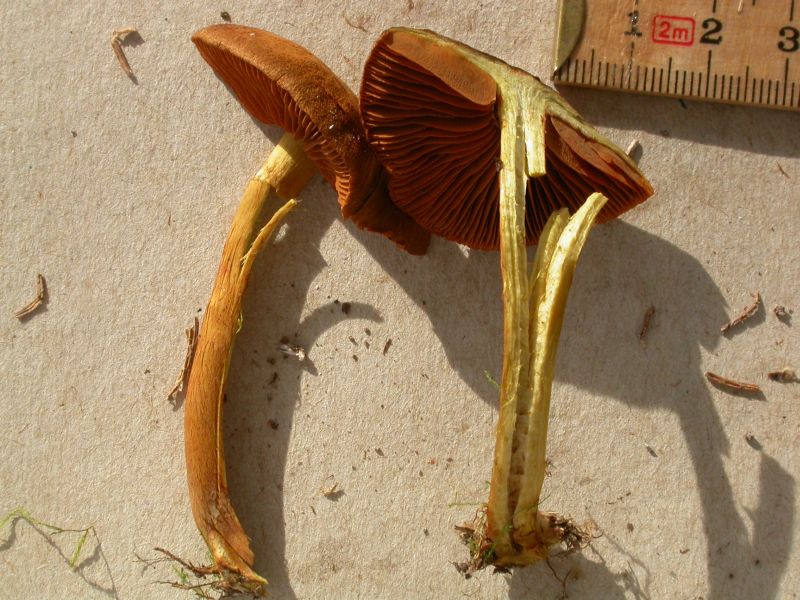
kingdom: Fungi
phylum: Basidiomycota
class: Agaricomycetes
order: Agaricales
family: Cortinariaceae
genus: Cortinarius
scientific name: Cortinarius cinnamomeus
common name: kanel-slørhat
